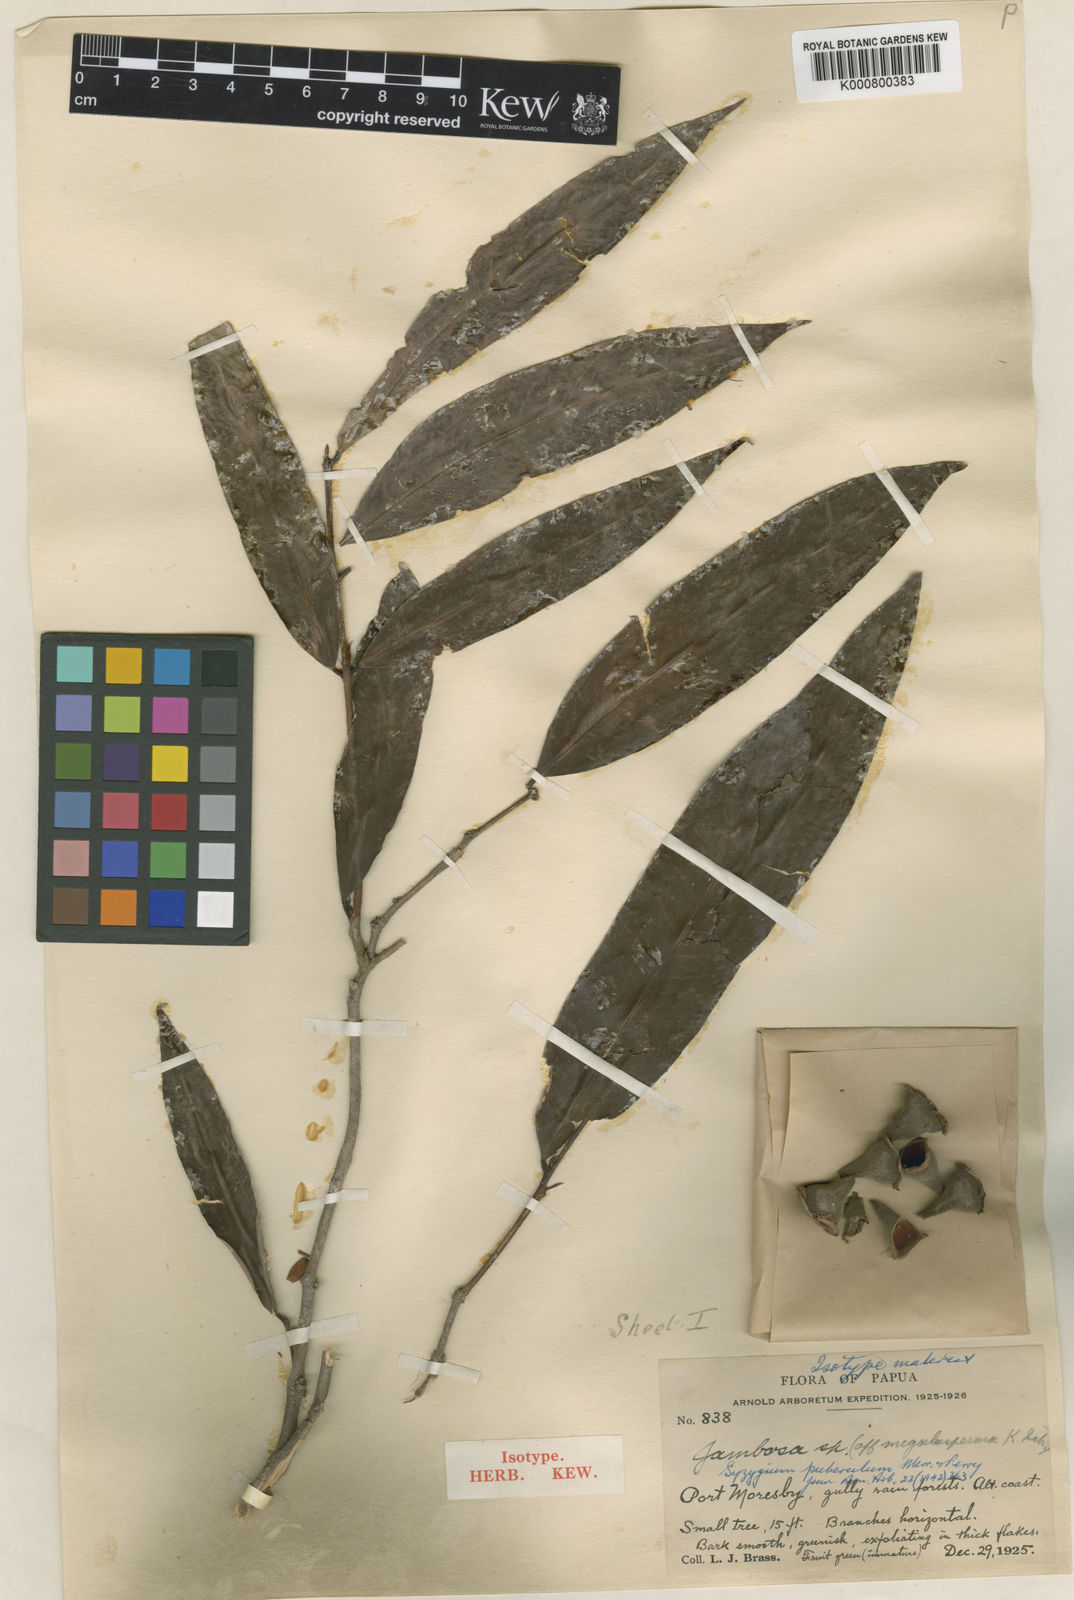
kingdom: Plantae
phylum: Tracheophyta
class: Magnoliopsida
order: Myrtales
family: Myrtaceae
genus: Syzygium
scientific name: Syzygium puberulum
